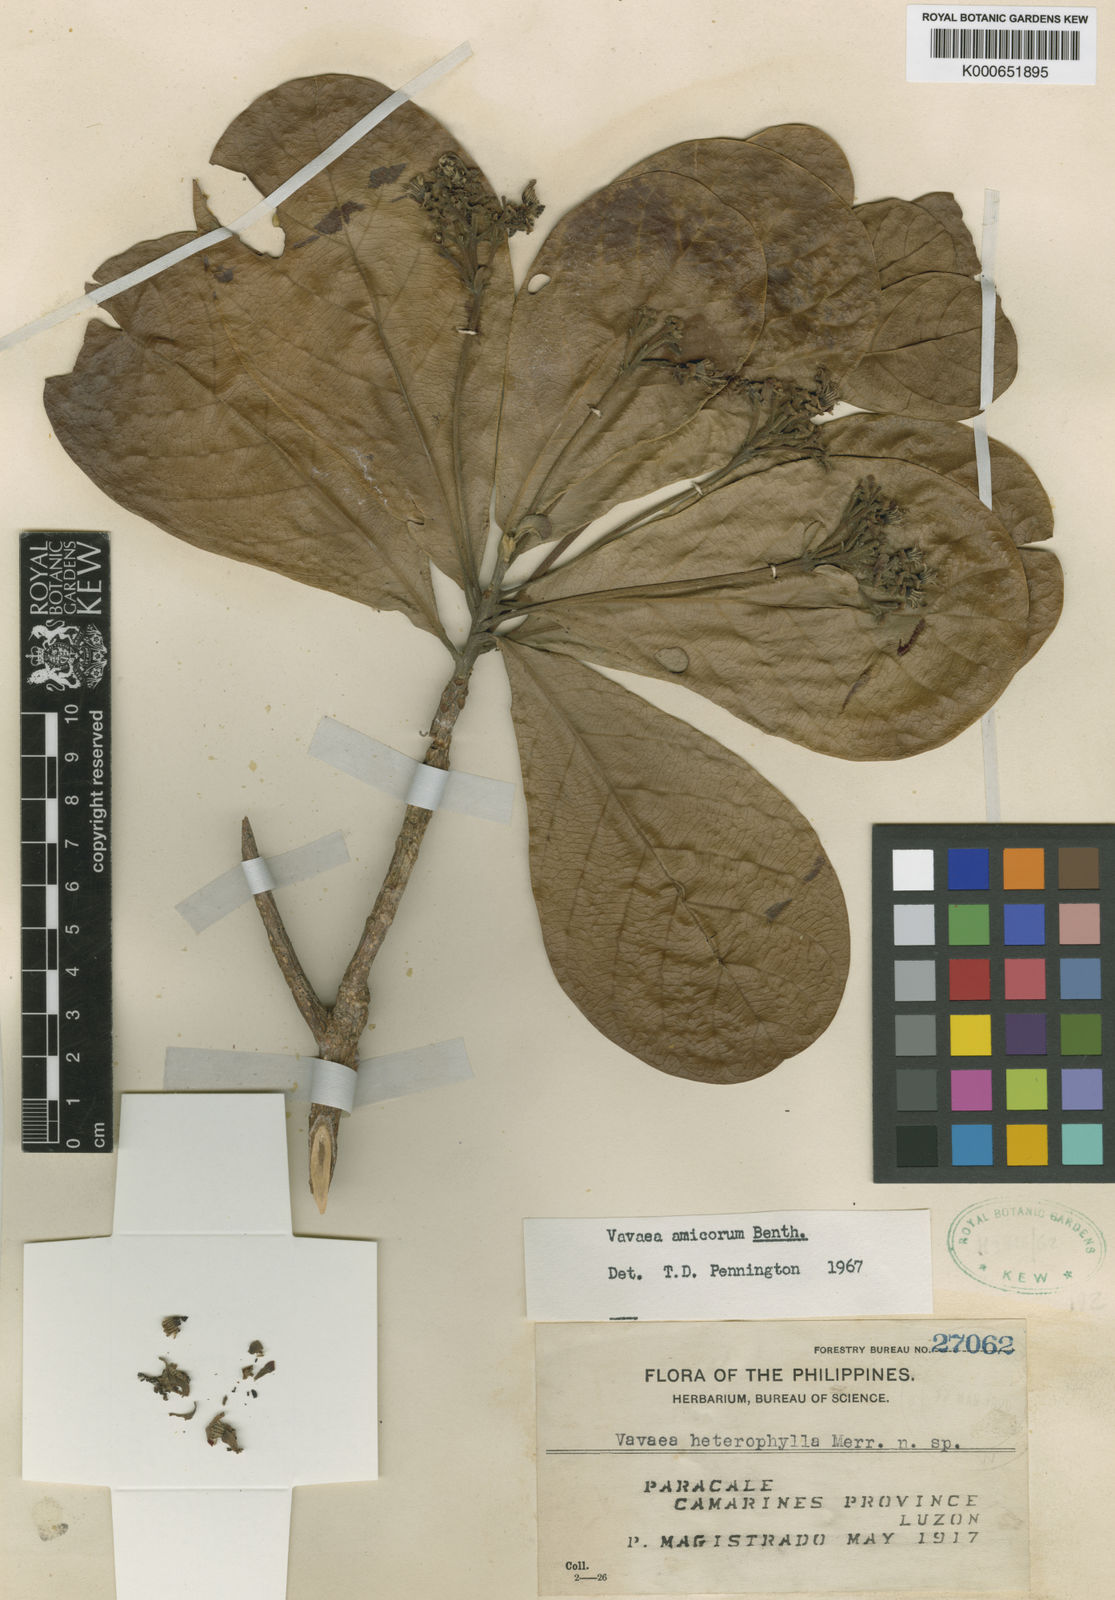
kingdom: Plantae
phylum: Tracheophyta
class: Magnoliopsida
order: Sapindales
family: Meliaceae
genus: Vavaea
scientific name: Vavaea amicorum
